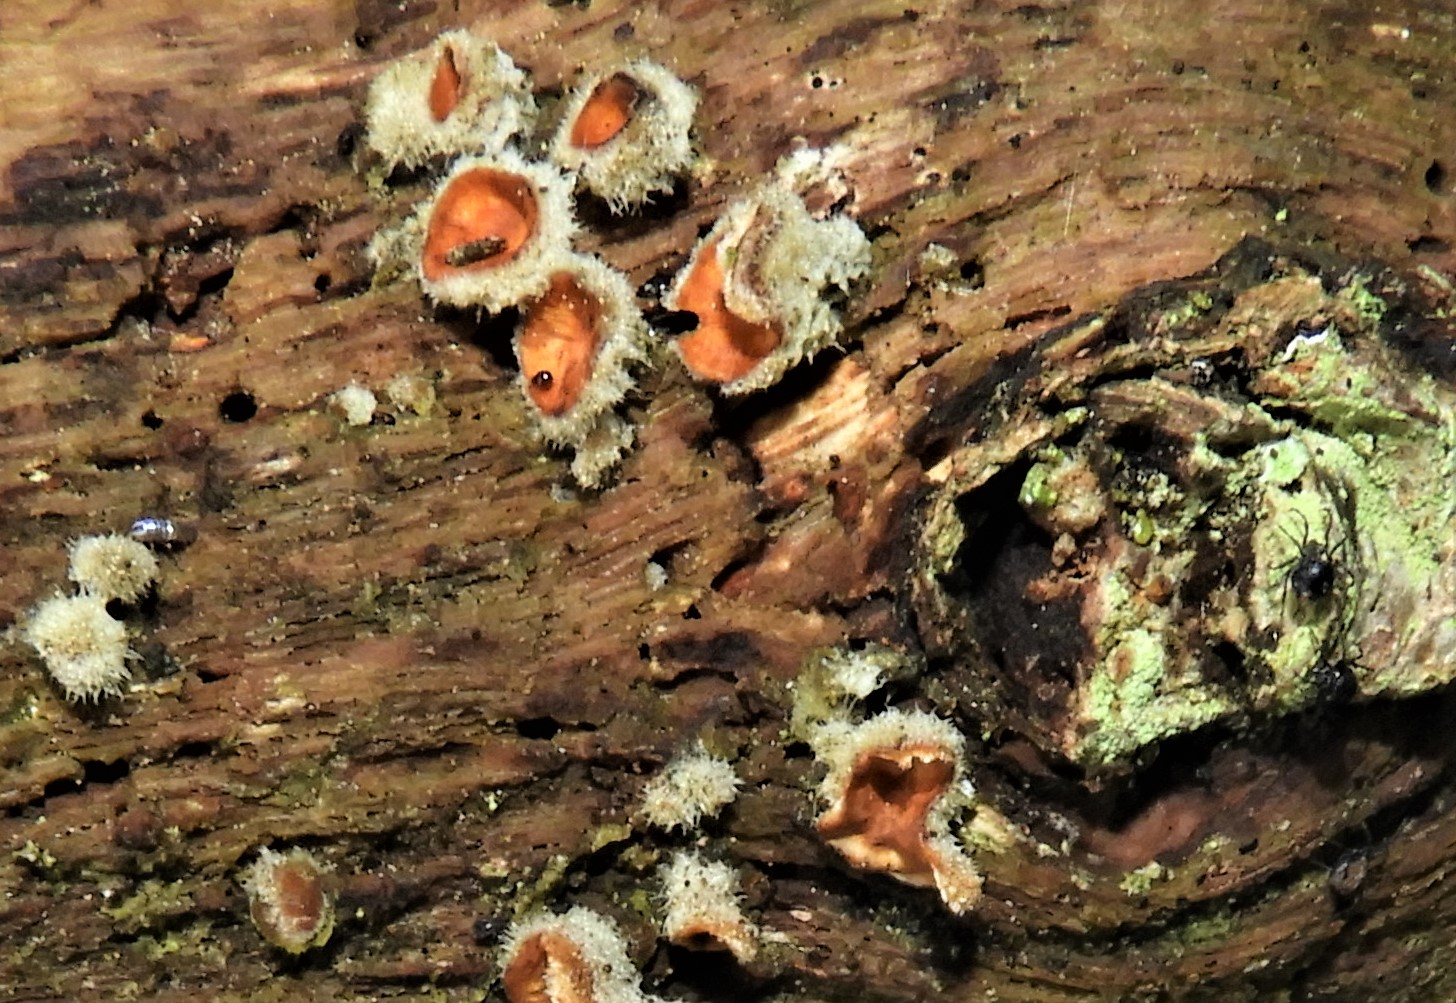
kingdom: Fungi
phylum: Basidiomycota
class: Agaricomycetes
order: Russulales
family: Stereaceae
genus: Stereum
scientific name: Stereum hirsutum
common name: håret lædersvamp
